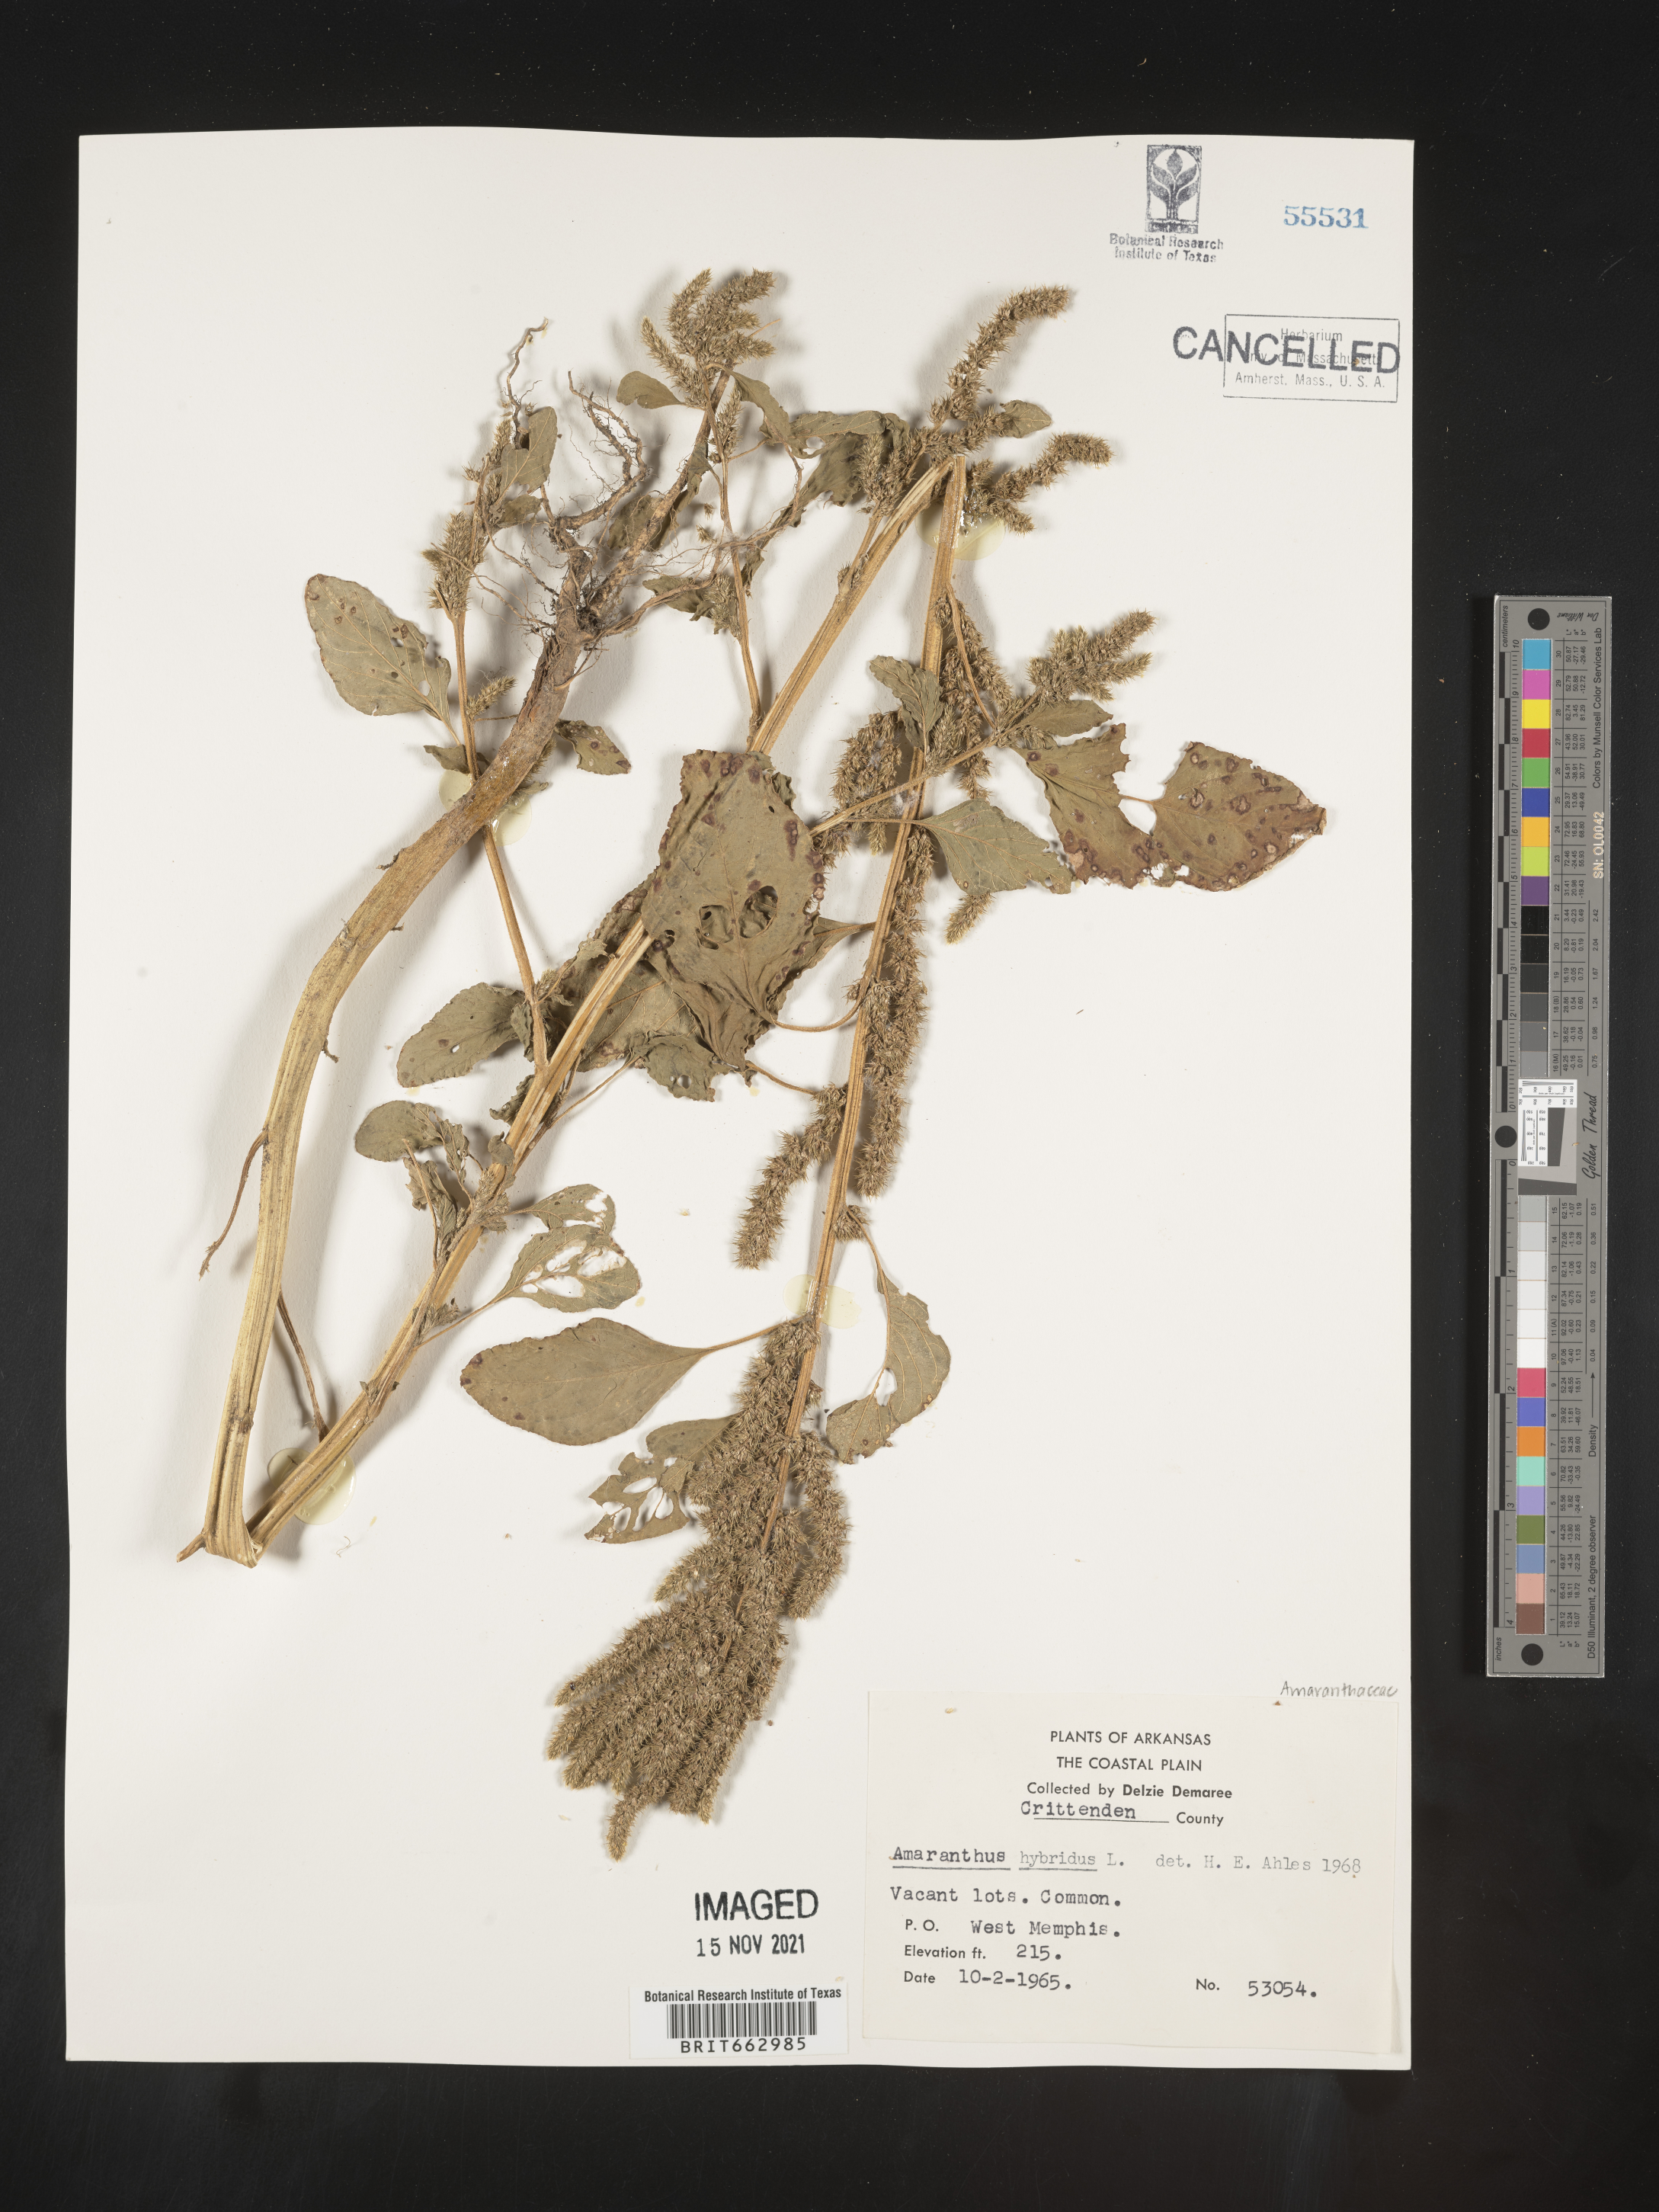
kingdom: Plantae
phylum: Tracheophyta
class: Magnoliopsida
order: Caryophyllales
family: Amaranthaceae
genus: Amaranthus
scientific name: Amaranthus hybridus
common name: Green amaranth
